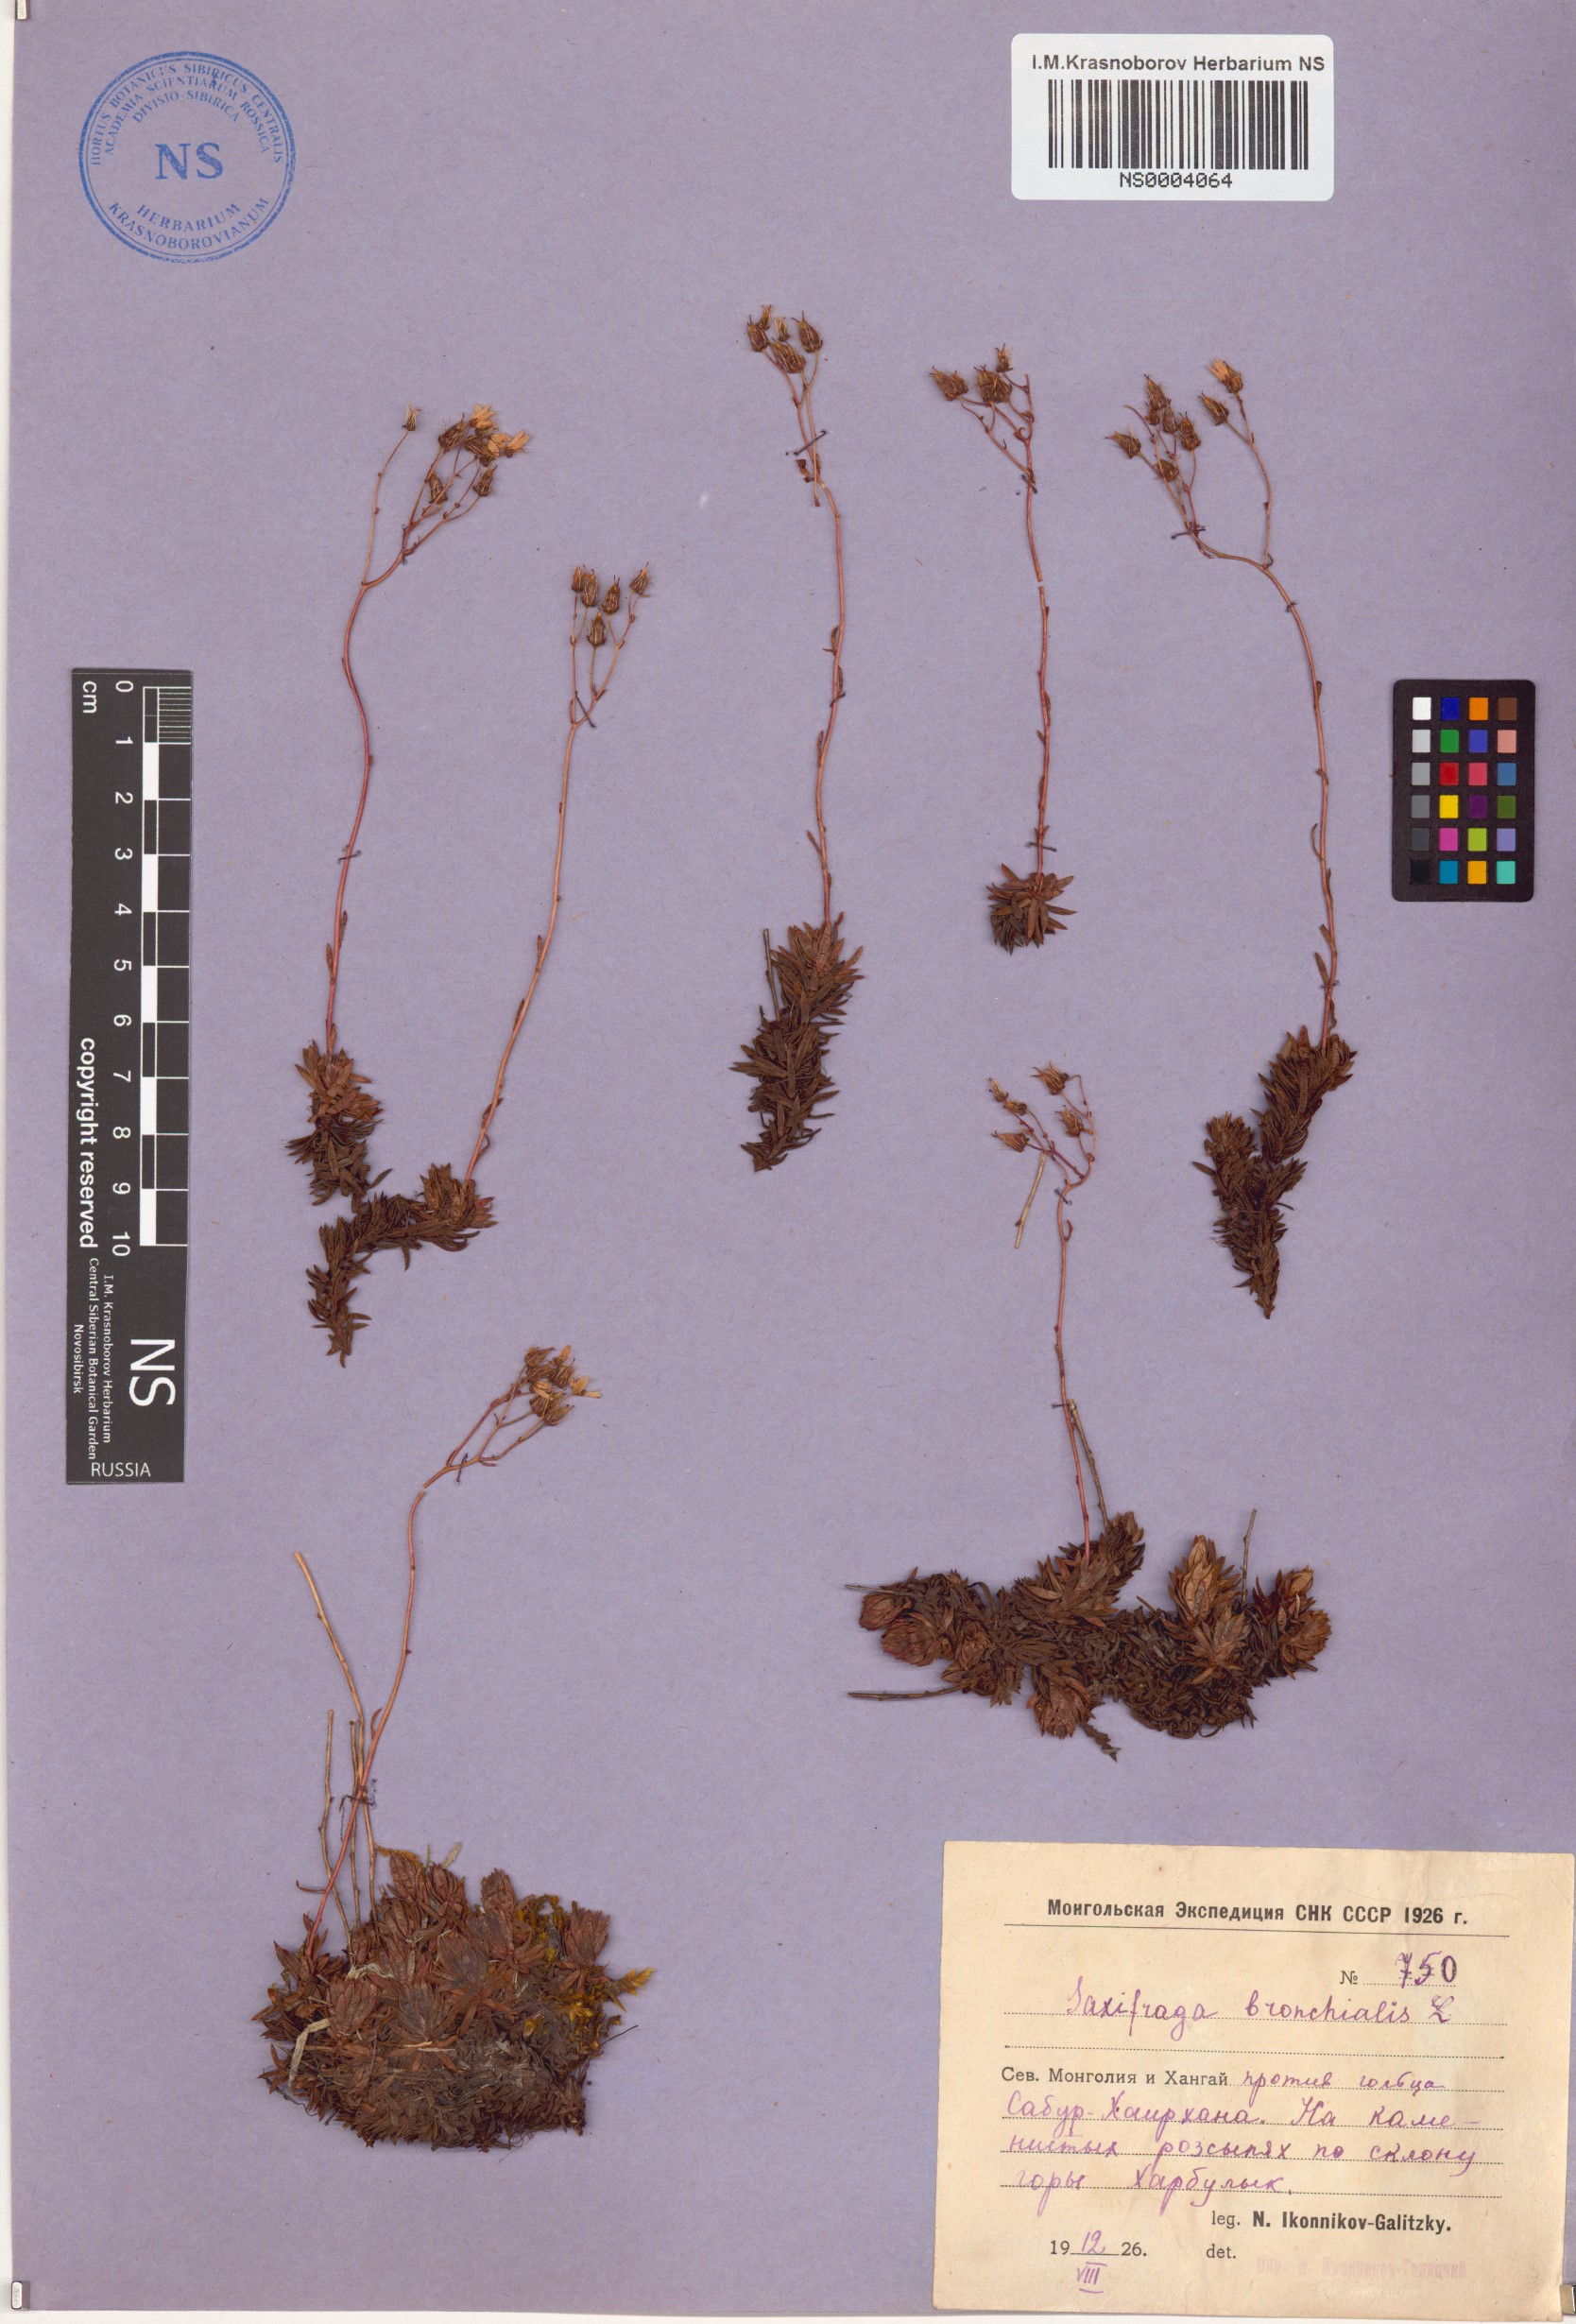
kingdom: Plantae
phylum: Tracheophyta
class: Magnoliopsida
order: Saxifragales
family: Saxifragaceae
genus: Saxifraga
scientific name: Saxifraga bronchialis
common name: Matted saxifrage
